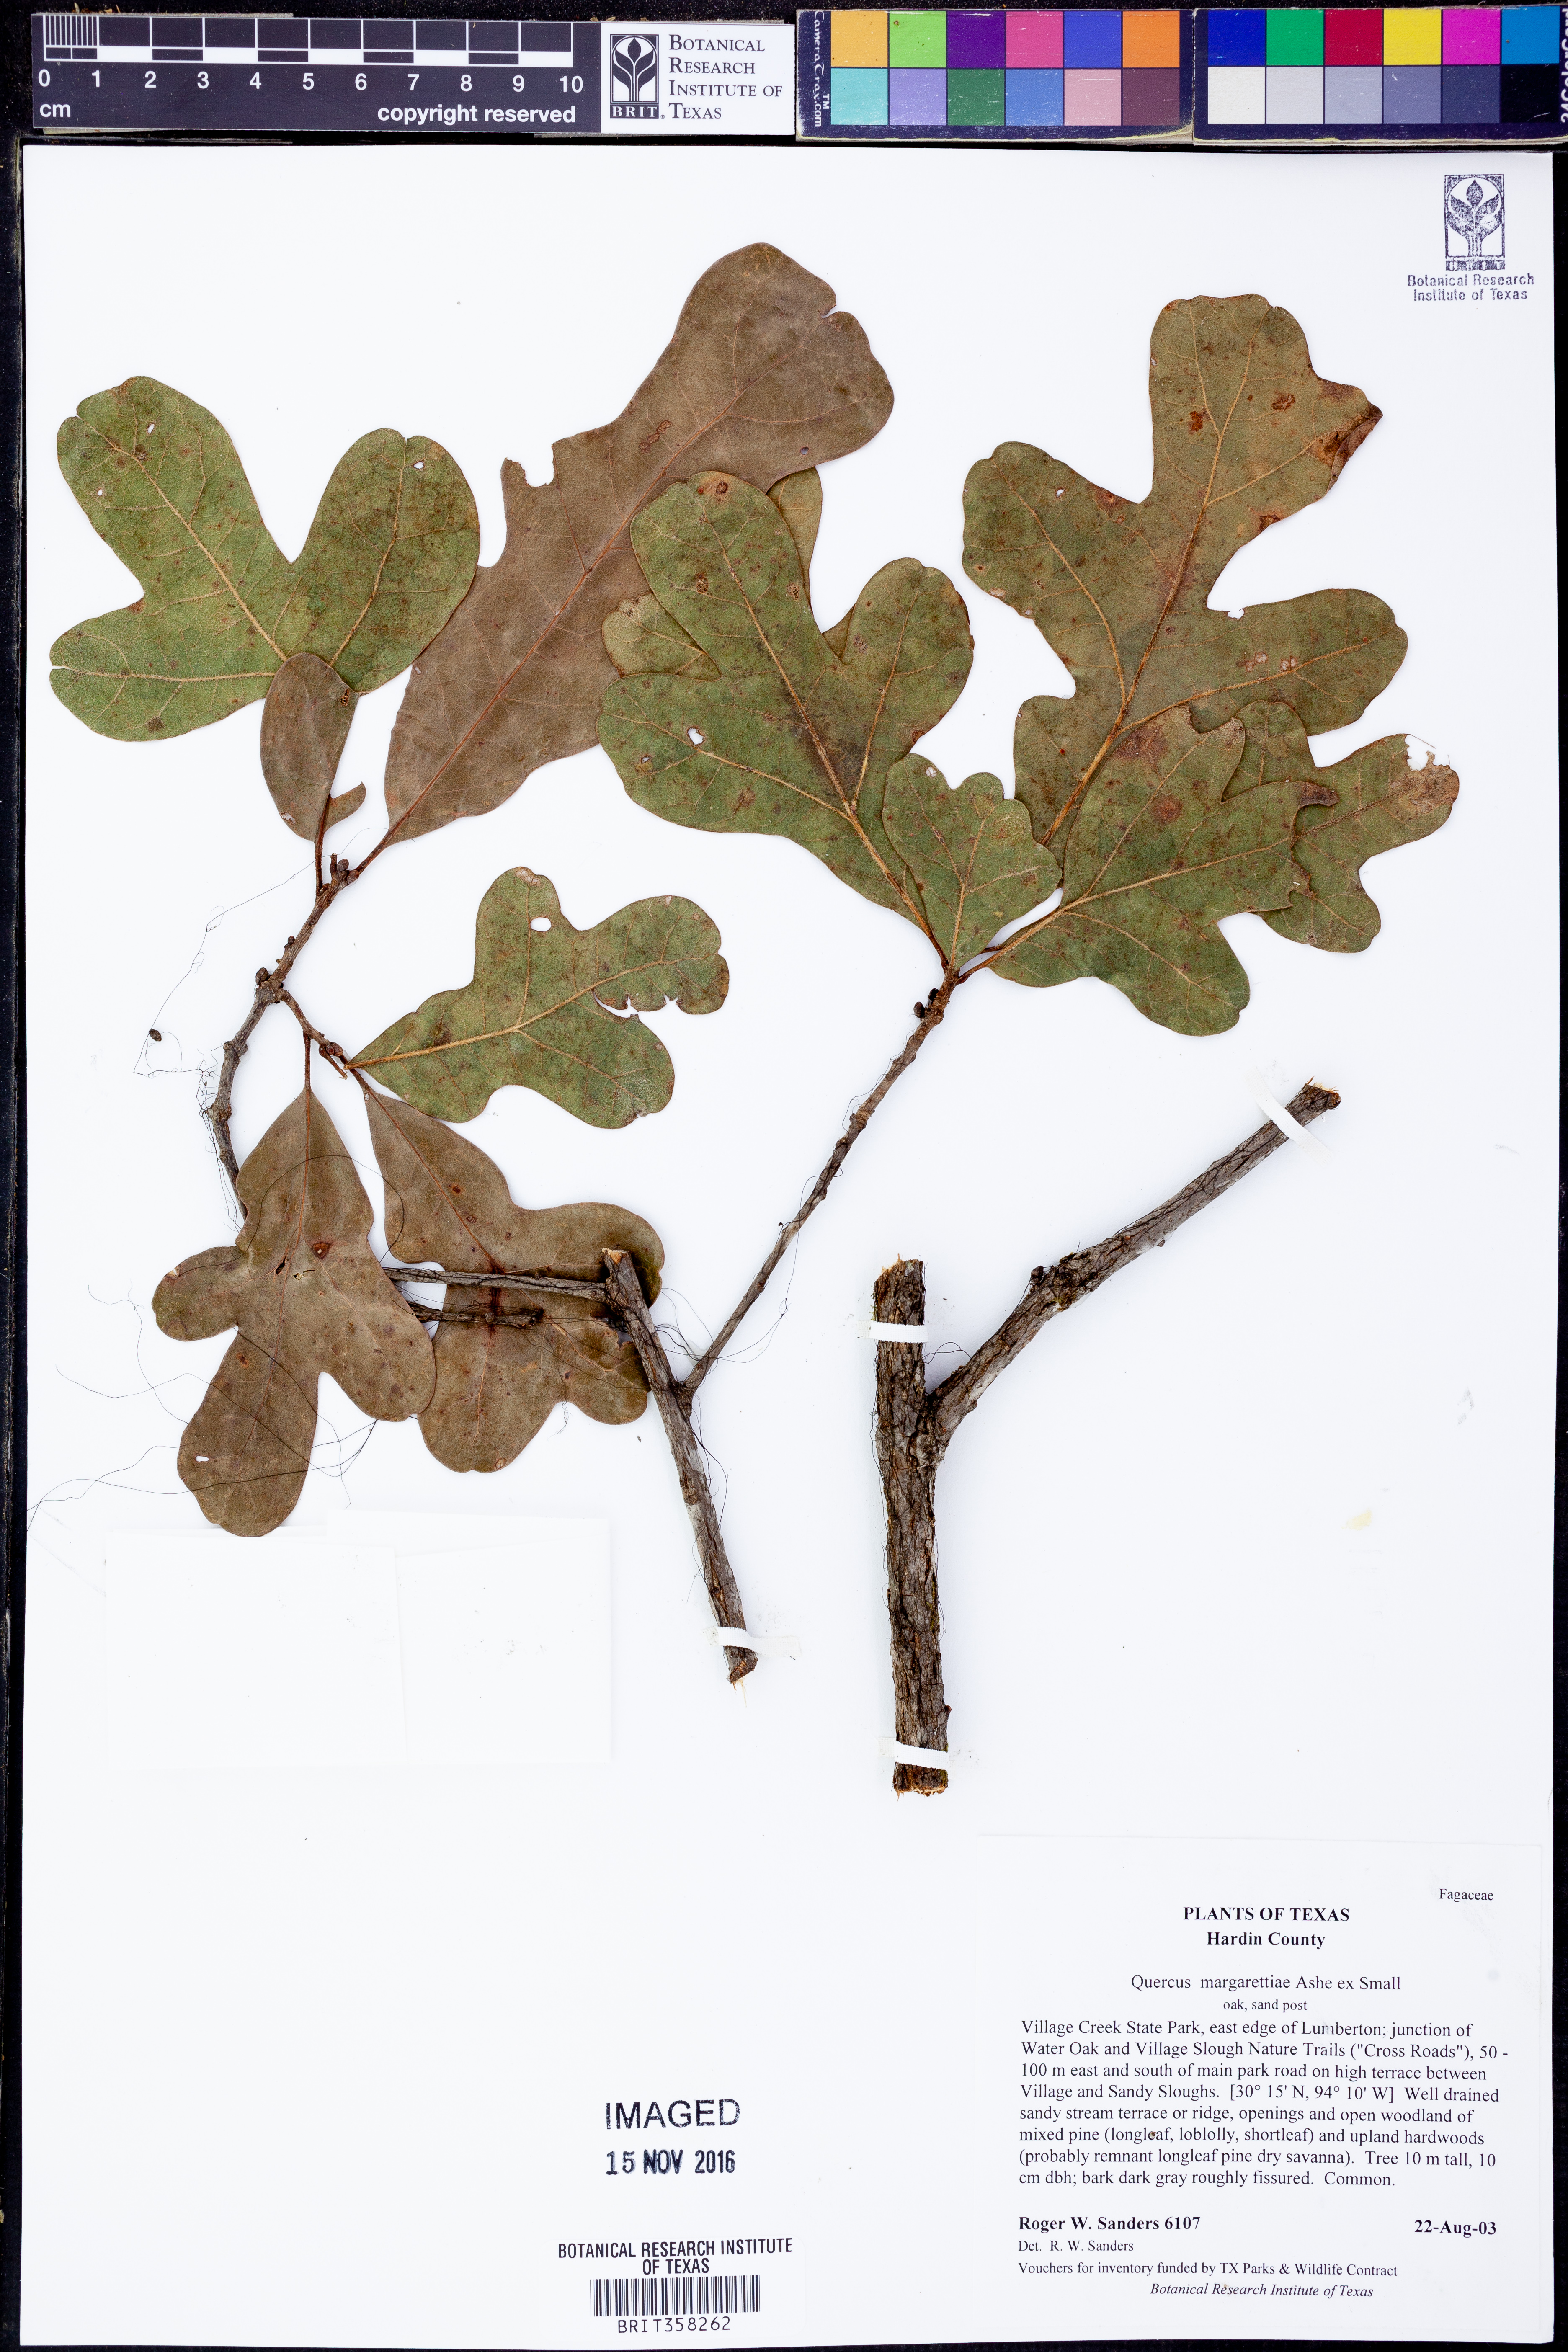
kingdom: Plantae
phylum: Tracheophyta
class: Magnoliopsida
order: Fagales
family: Fagaceae
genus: Quercus
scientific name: Quercus margaretiae
